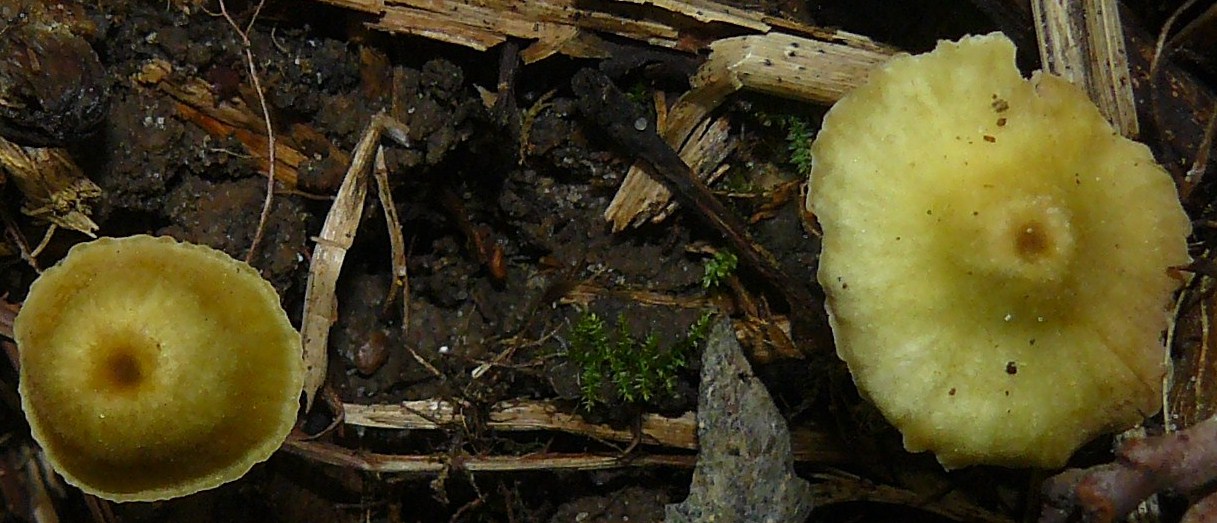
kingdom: Fungi
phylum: Basidiomycota
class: Agaricomycetes
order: Agaricales
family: Entolomataceae
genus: Entoloma
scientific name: Entoloma pleopodium
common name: duftende rødblad
